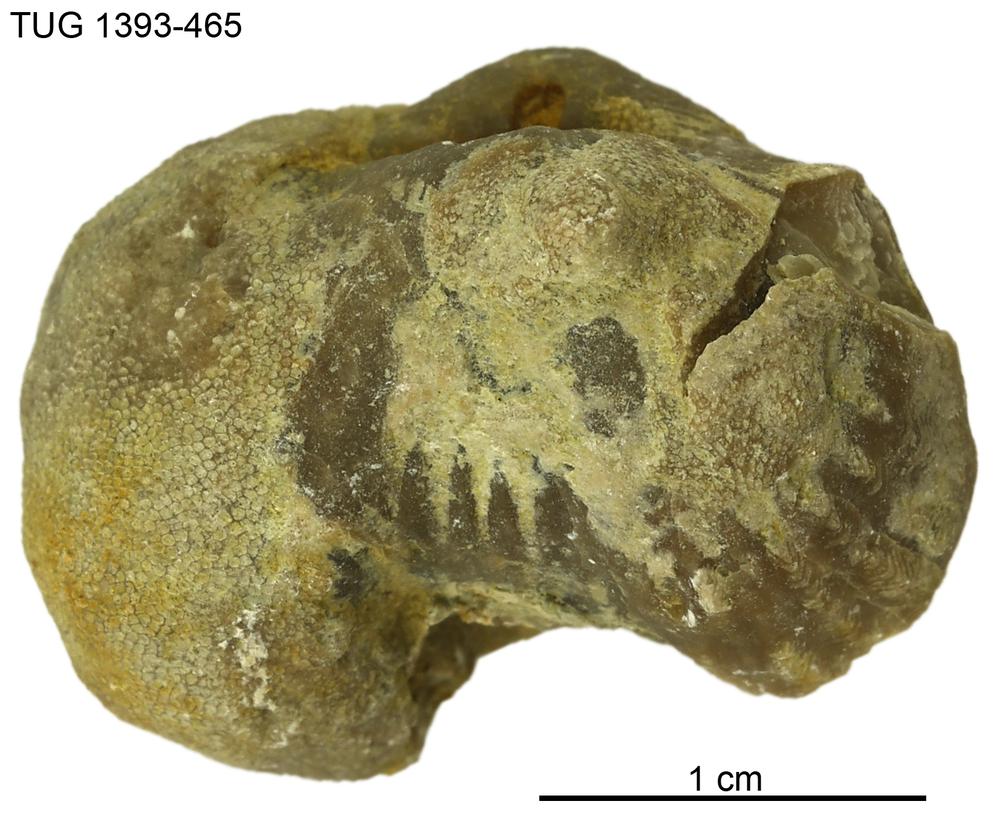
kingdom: Animalia
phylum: Brachiopoda
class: Rhynchonellata
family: Plectorthidae
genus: Platystrophia
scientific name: Platystrophia
